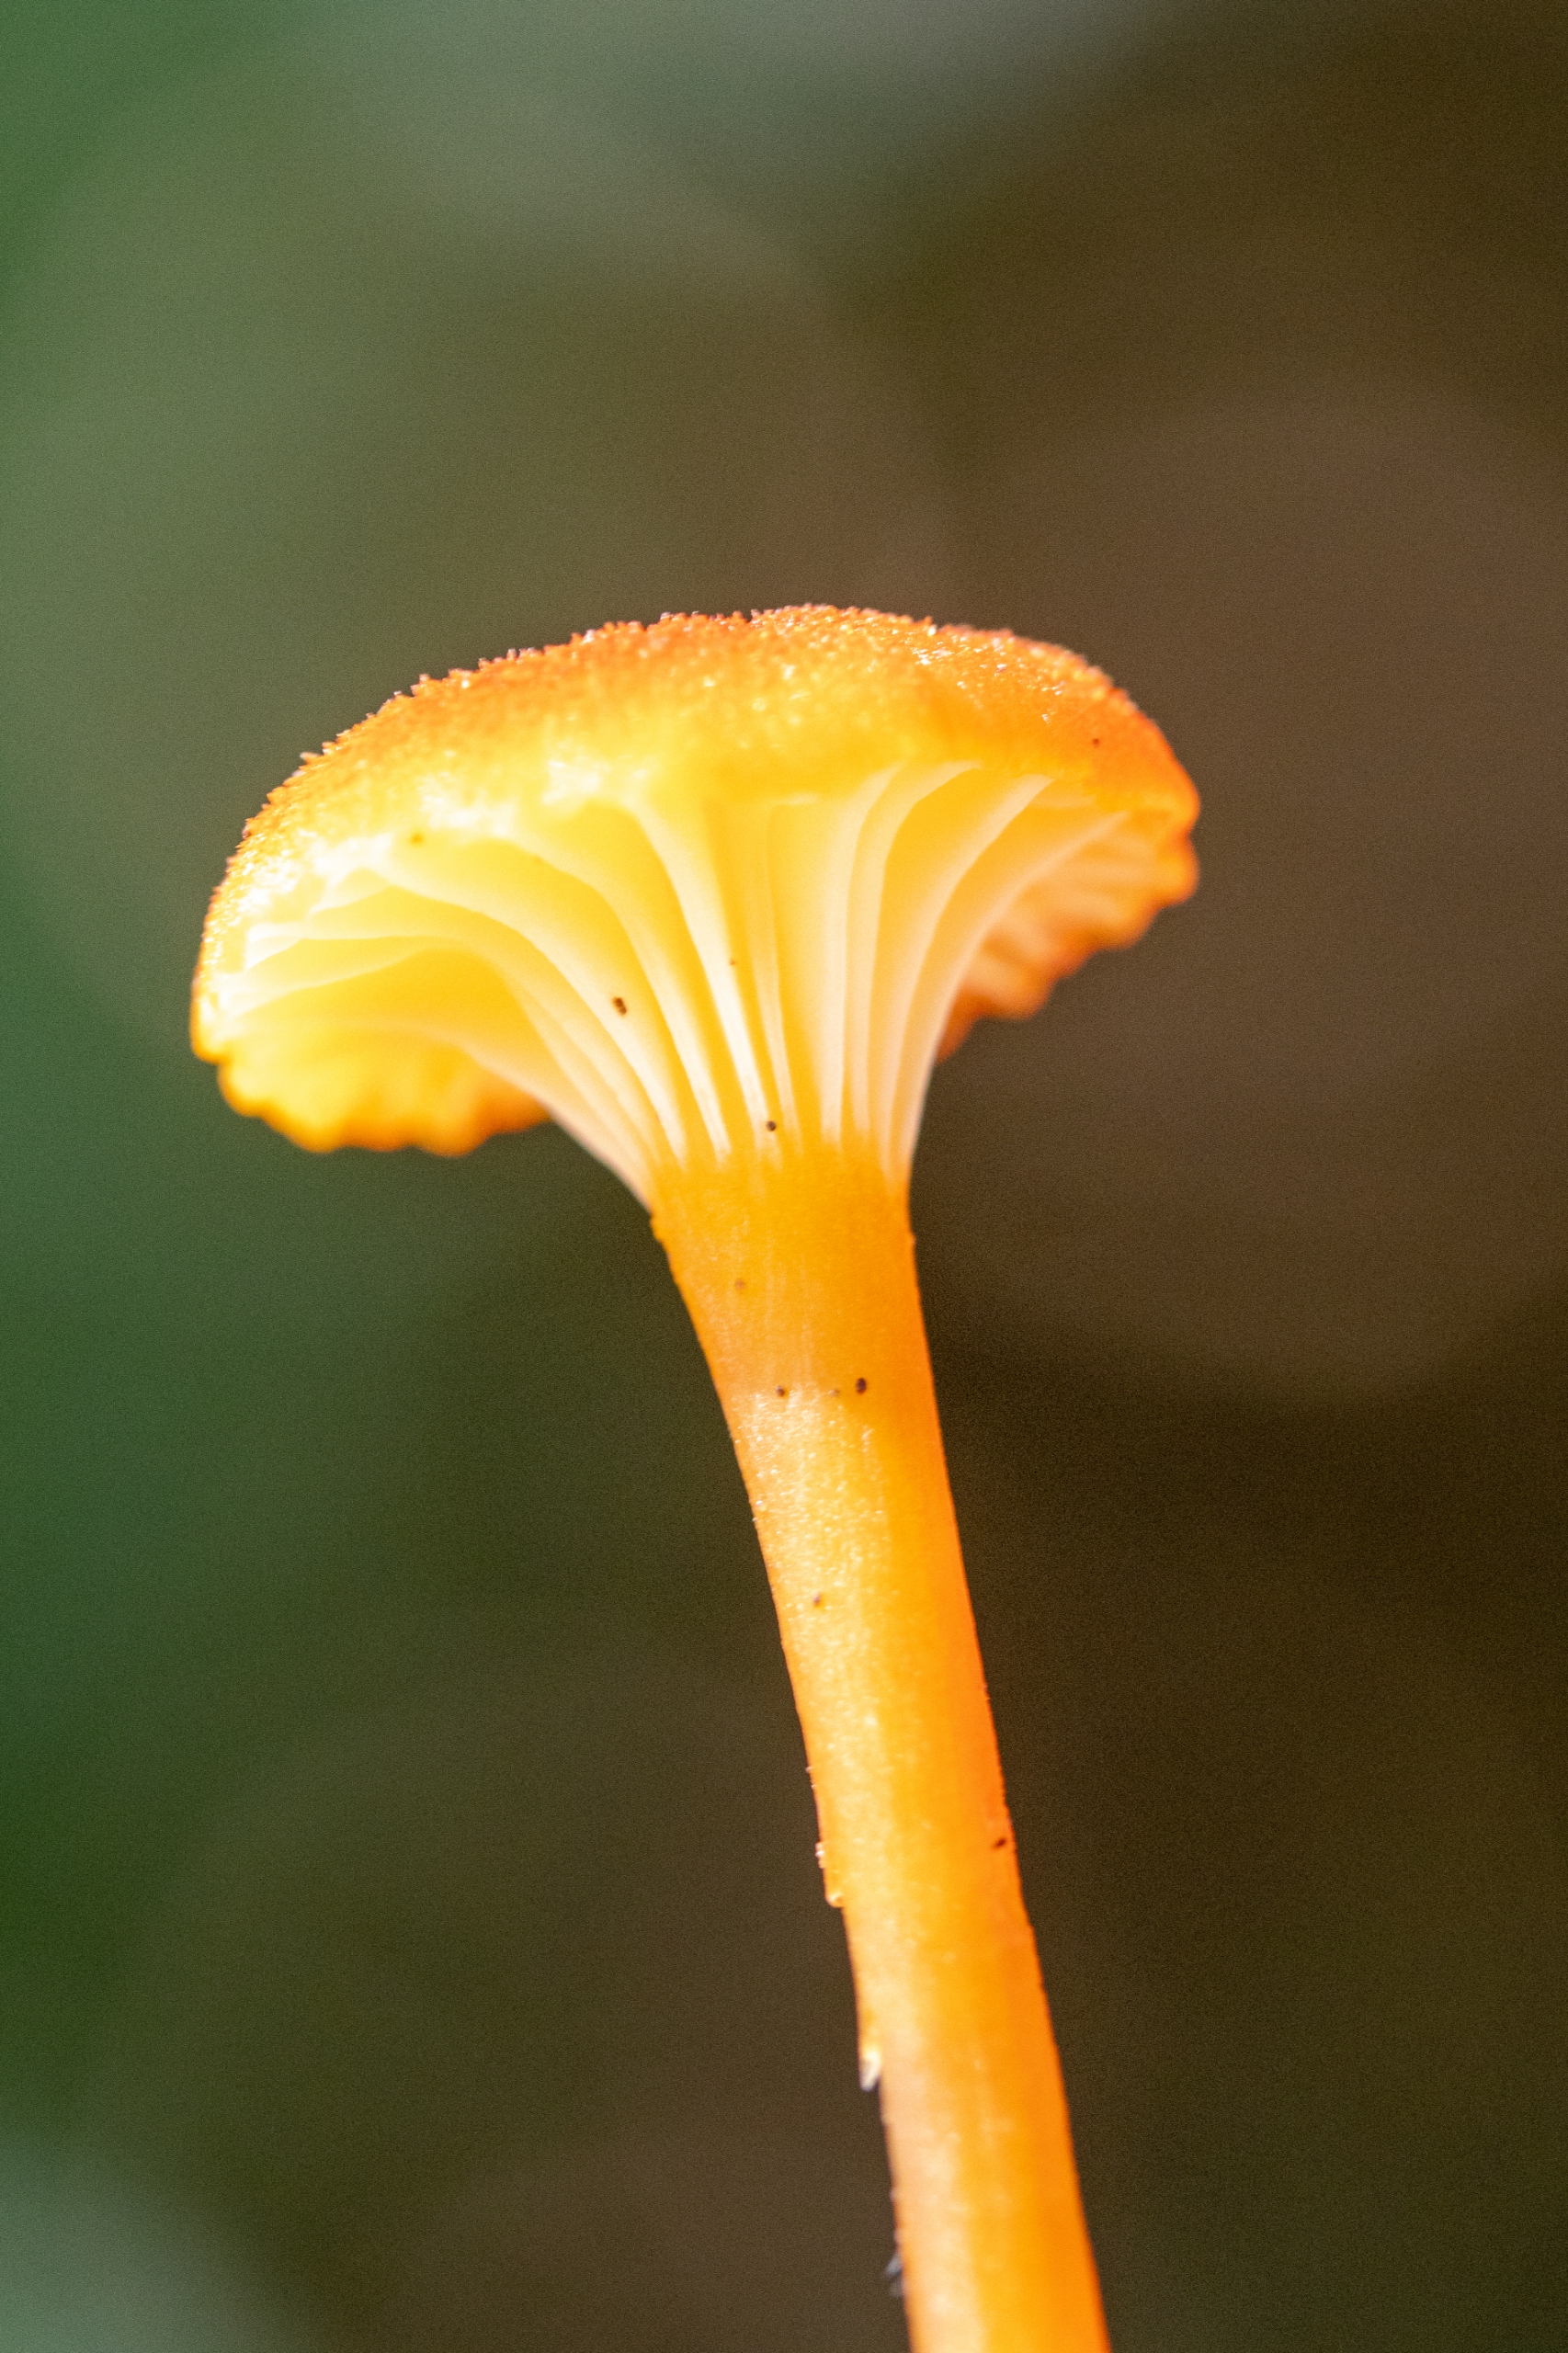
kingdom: Fungi
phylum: Basidiomycota
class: Agaricomycetes
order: Hymenochaetales
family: Rickenellaceae
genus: Rickenella
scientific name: Rickenella fibula
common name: Orange mosnavlehat
